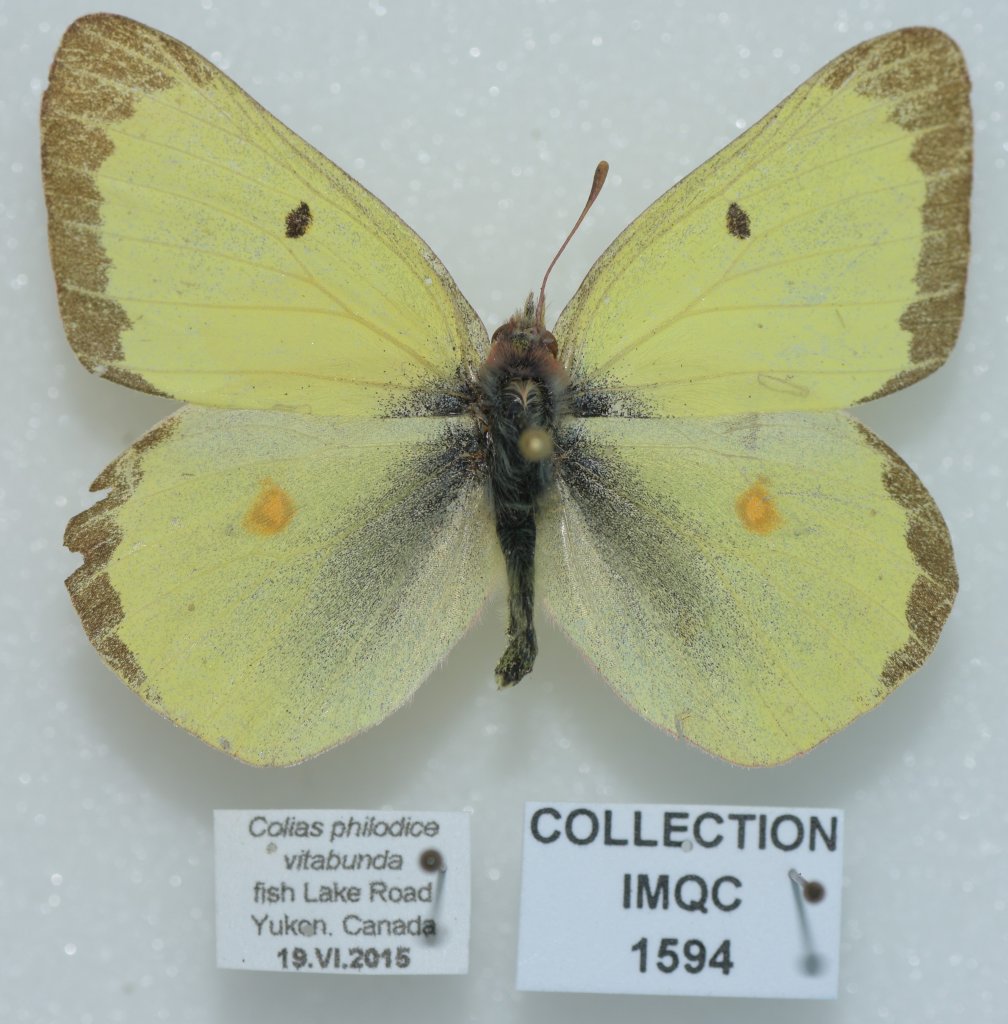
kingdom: Animalia
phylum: Arthropoda
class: Insecta
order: Lepidoptera
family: Pieridae
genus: Colias
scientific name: Colias philodice
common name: Clouded Sulphur
